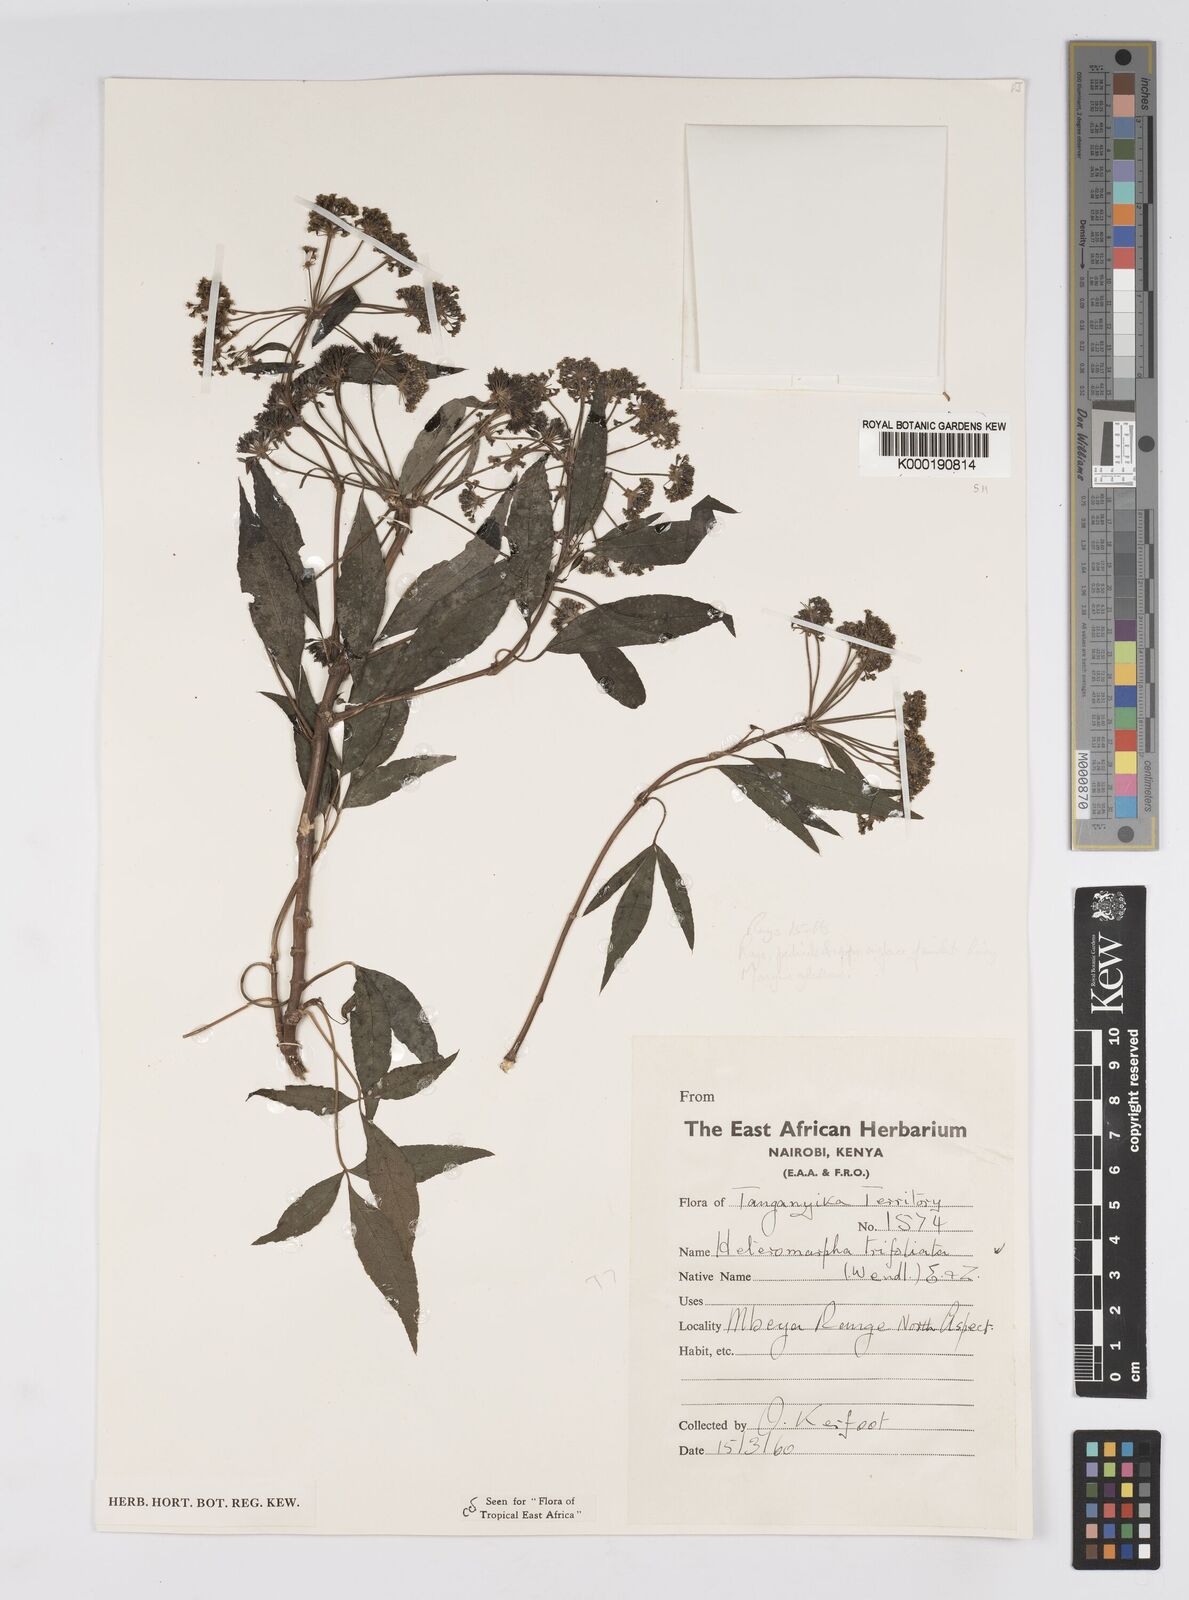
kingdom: Plantae
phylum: Tracheophyta
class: Magnoliopsida
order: Apiales
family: Apiaceae
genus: Heteromorpha
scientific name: Heteromorpha arborescens
